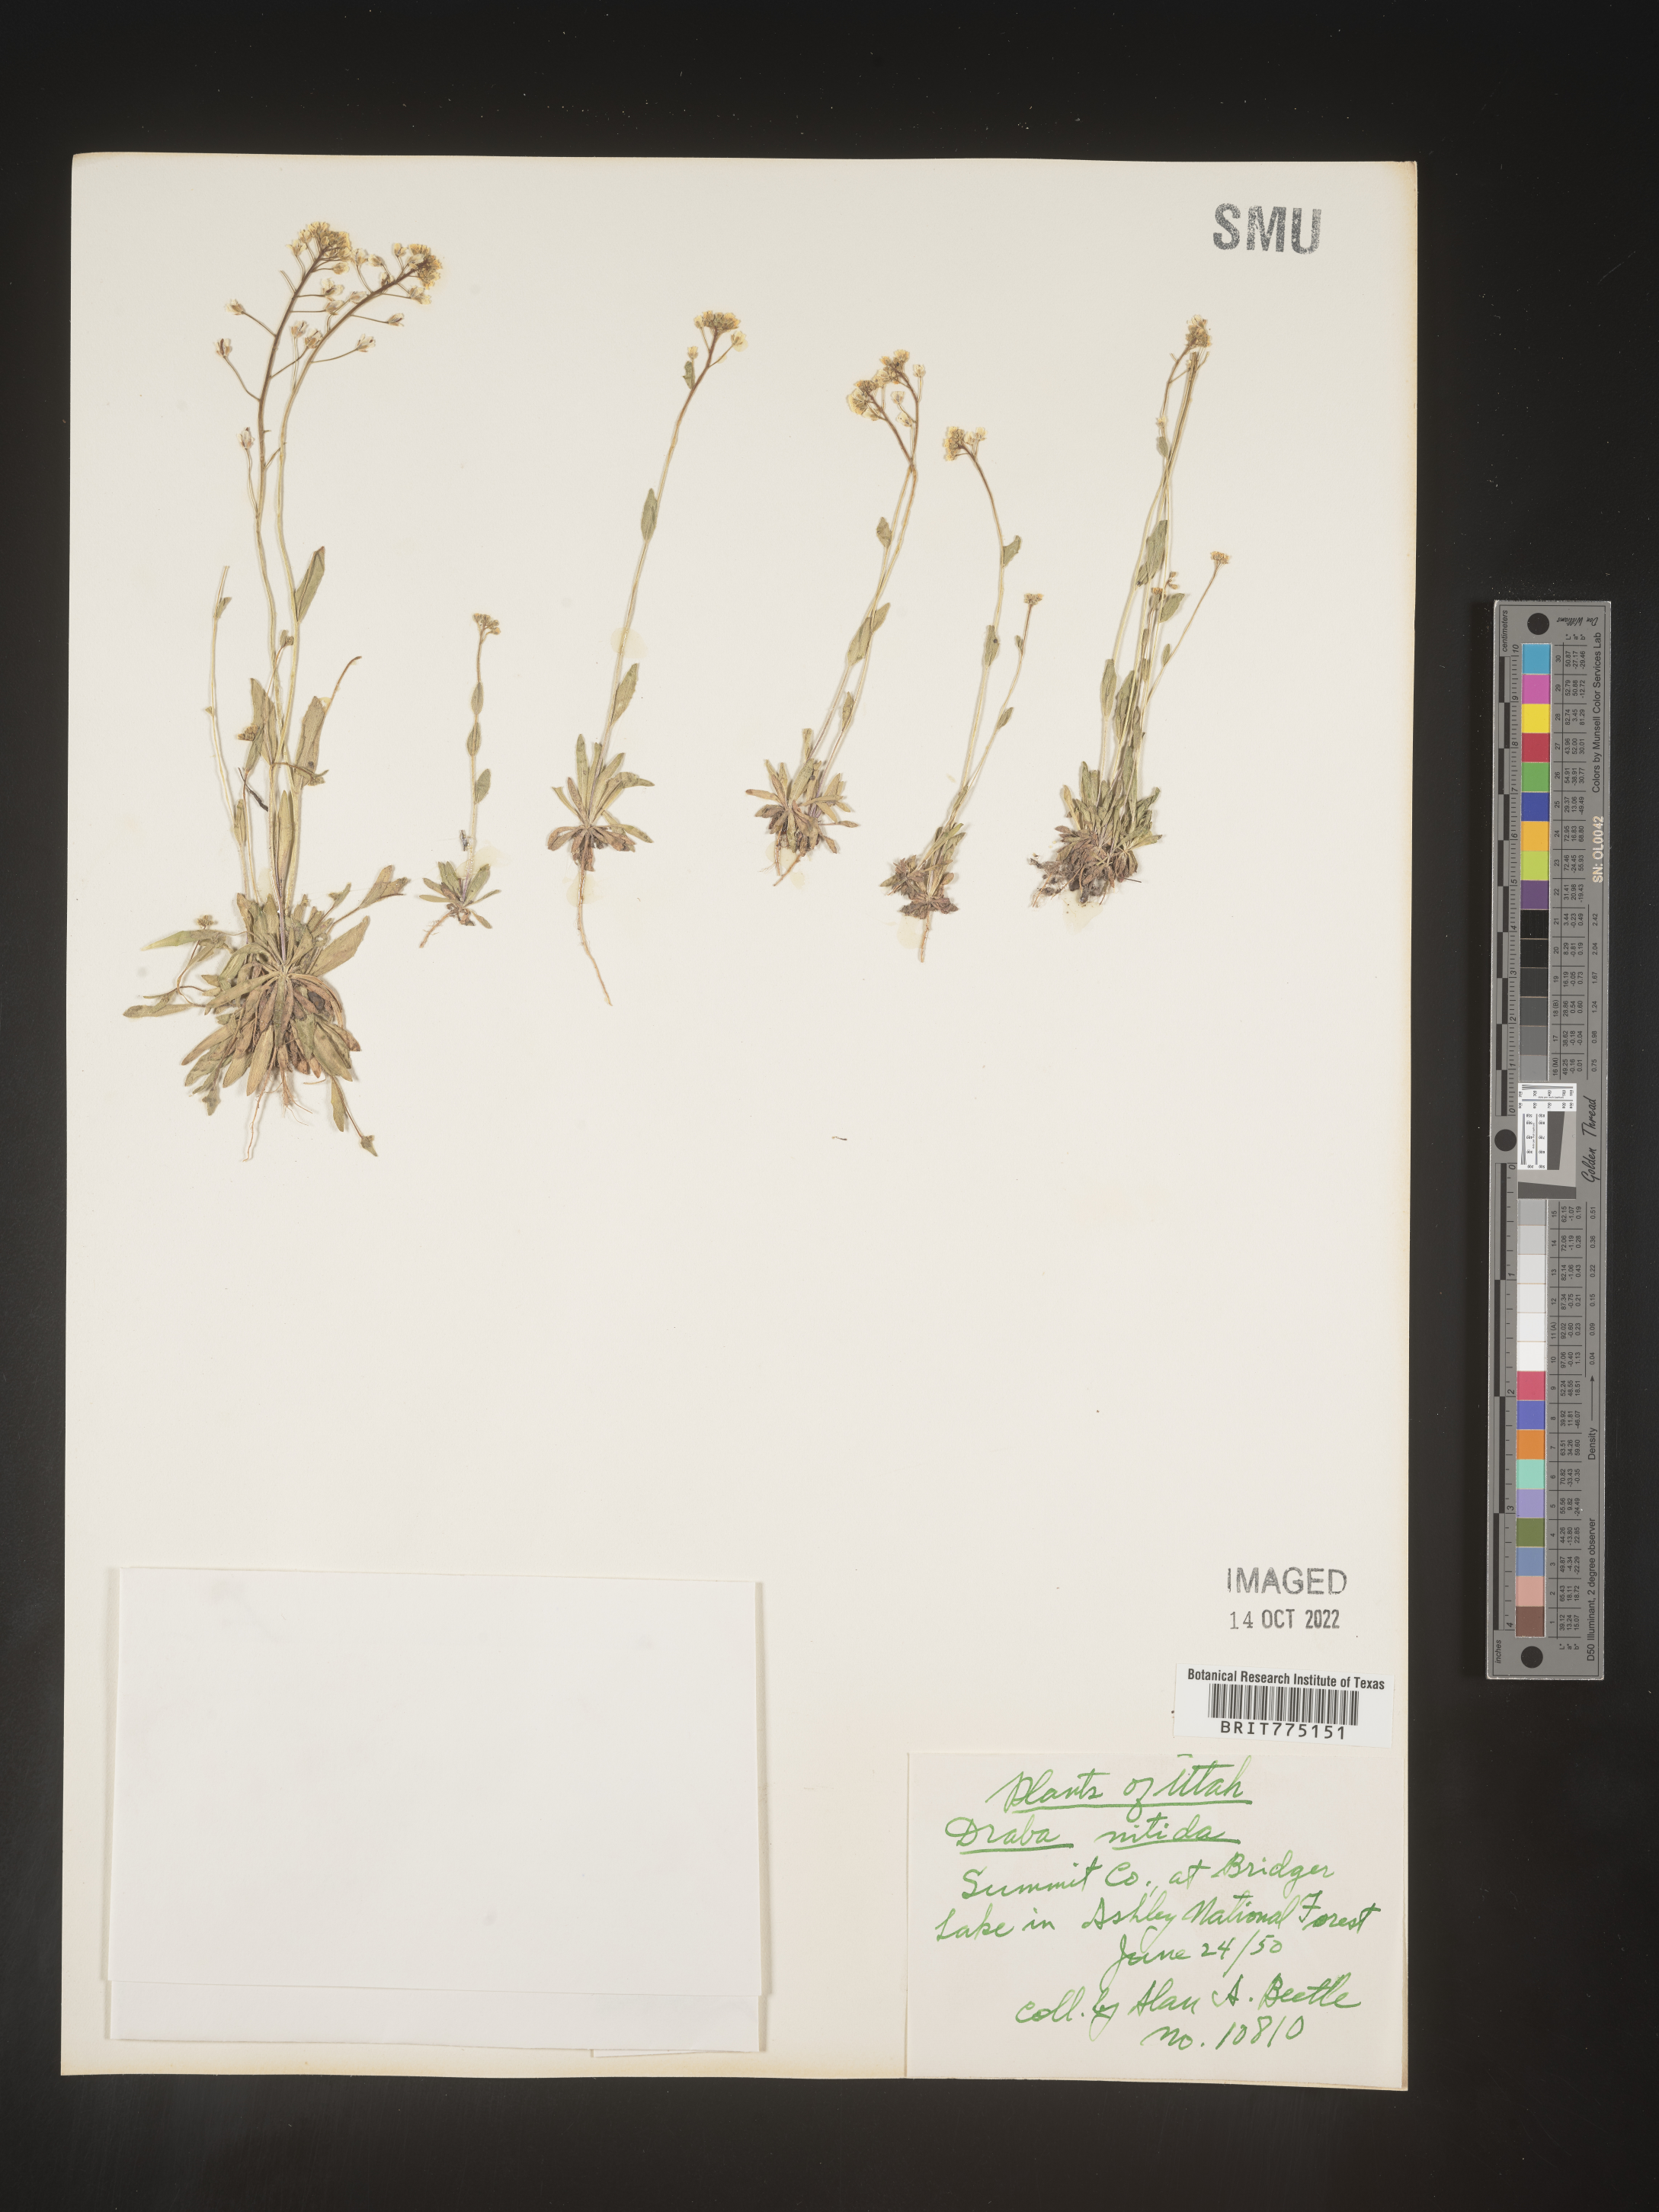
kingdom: Plantae
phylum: Tracheophyta
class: Magnoliopsida
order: Brassicales
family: Brassicaceae
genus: Draba
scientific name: Draba
